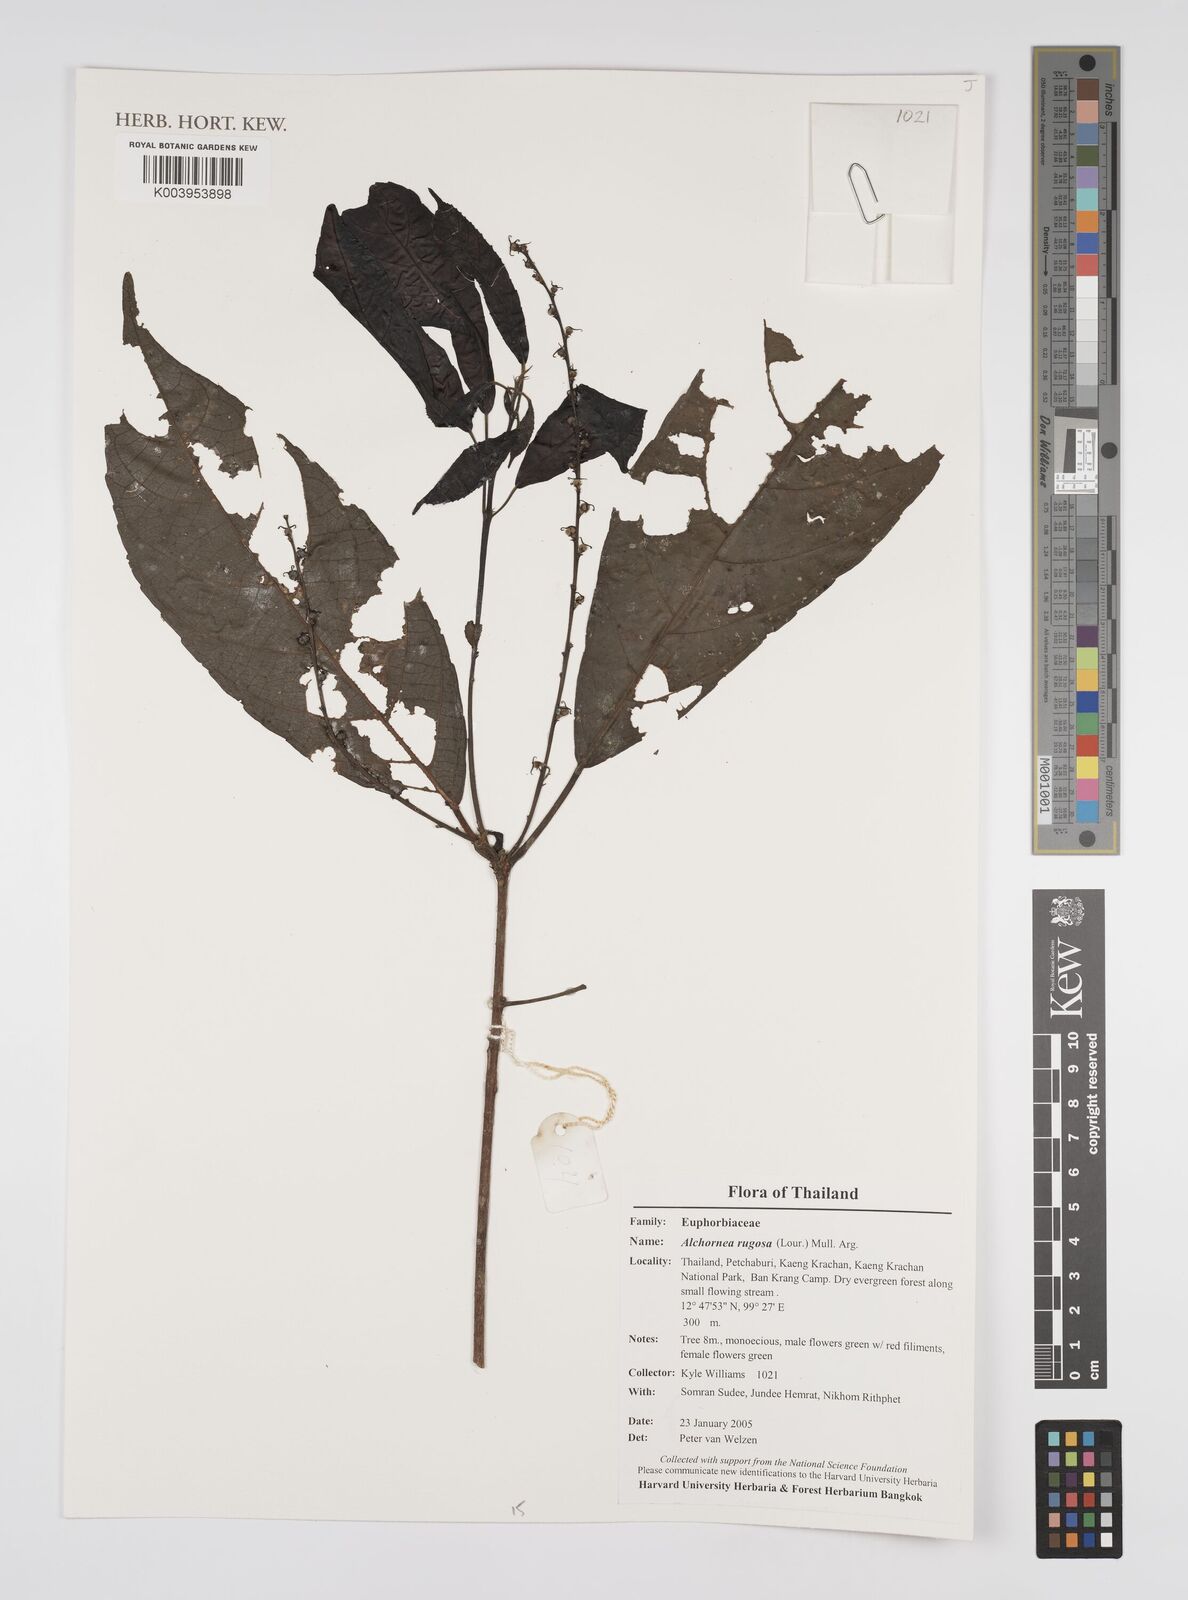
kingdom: Plantae
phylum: Tracheophyta
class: Magnoliopsida
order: Malpighiales
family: Euphorbiaceae
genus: Alchornea
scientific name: Alchornea rugosa
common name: Alchorntree
